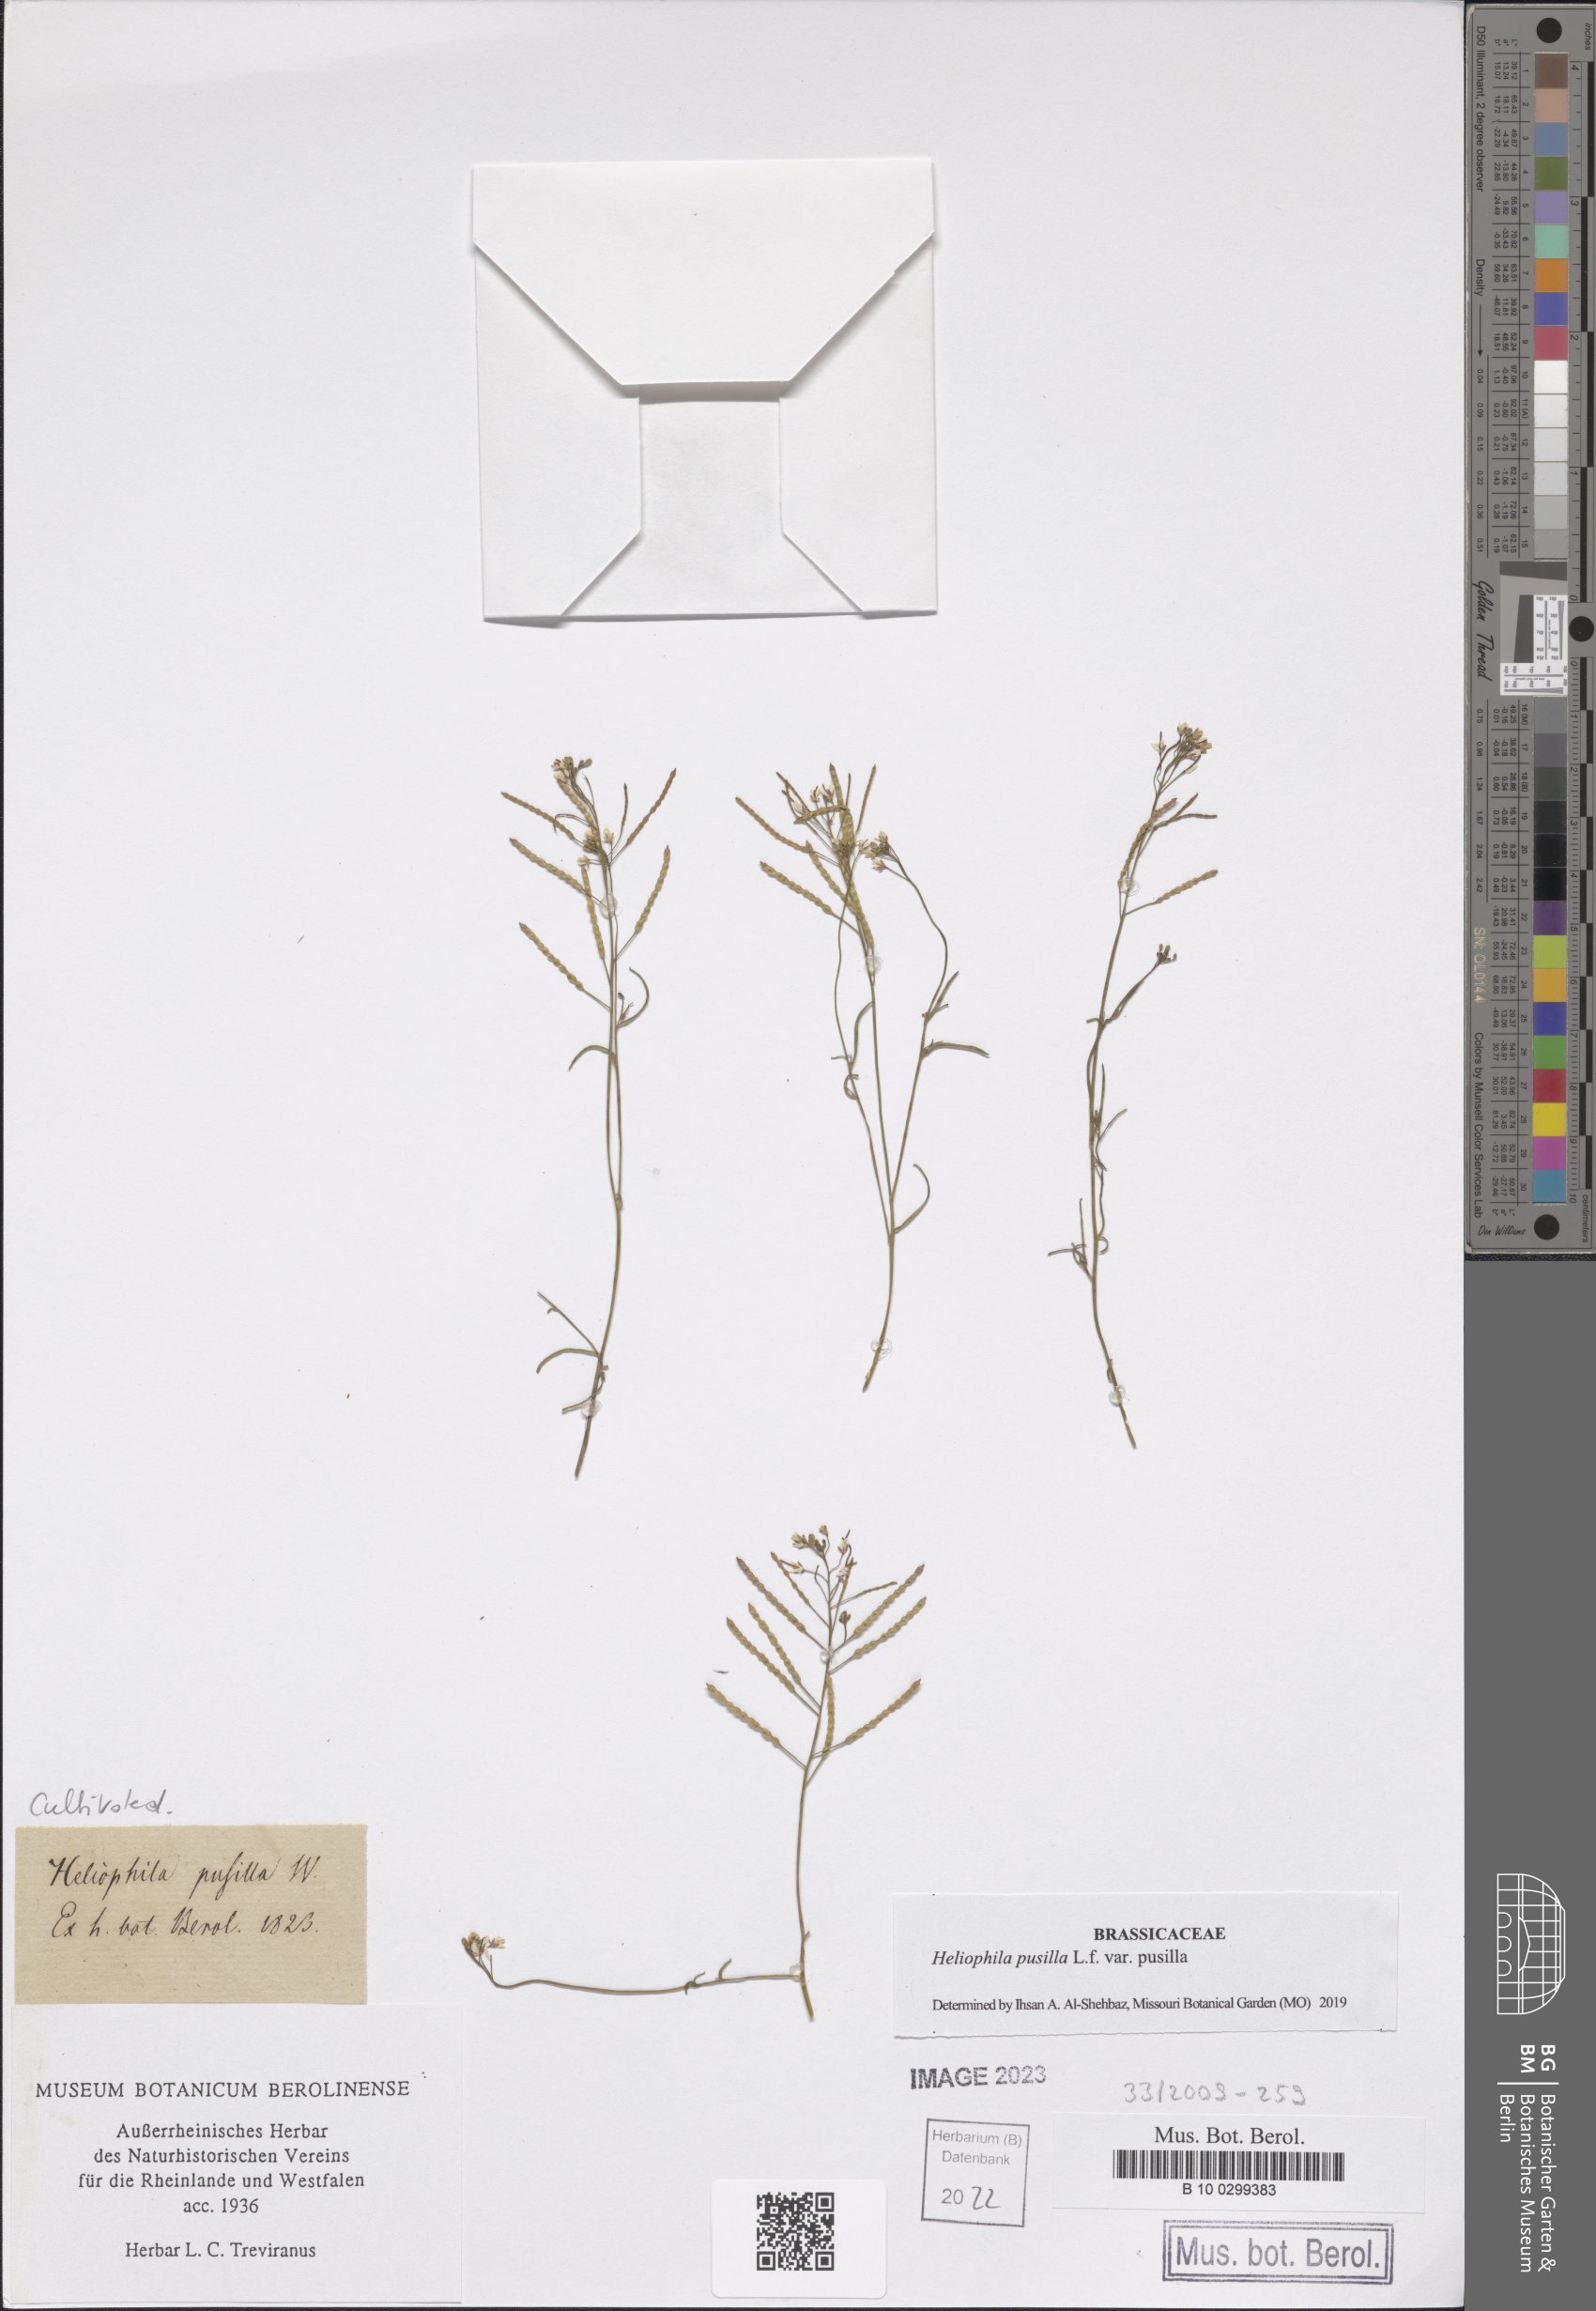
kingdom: Plantae
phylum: Tracheophyta
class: Magnoliopsida
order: Brassicales
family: Brassicaceae
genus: Heliophila
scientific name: Heliophila pusilla
